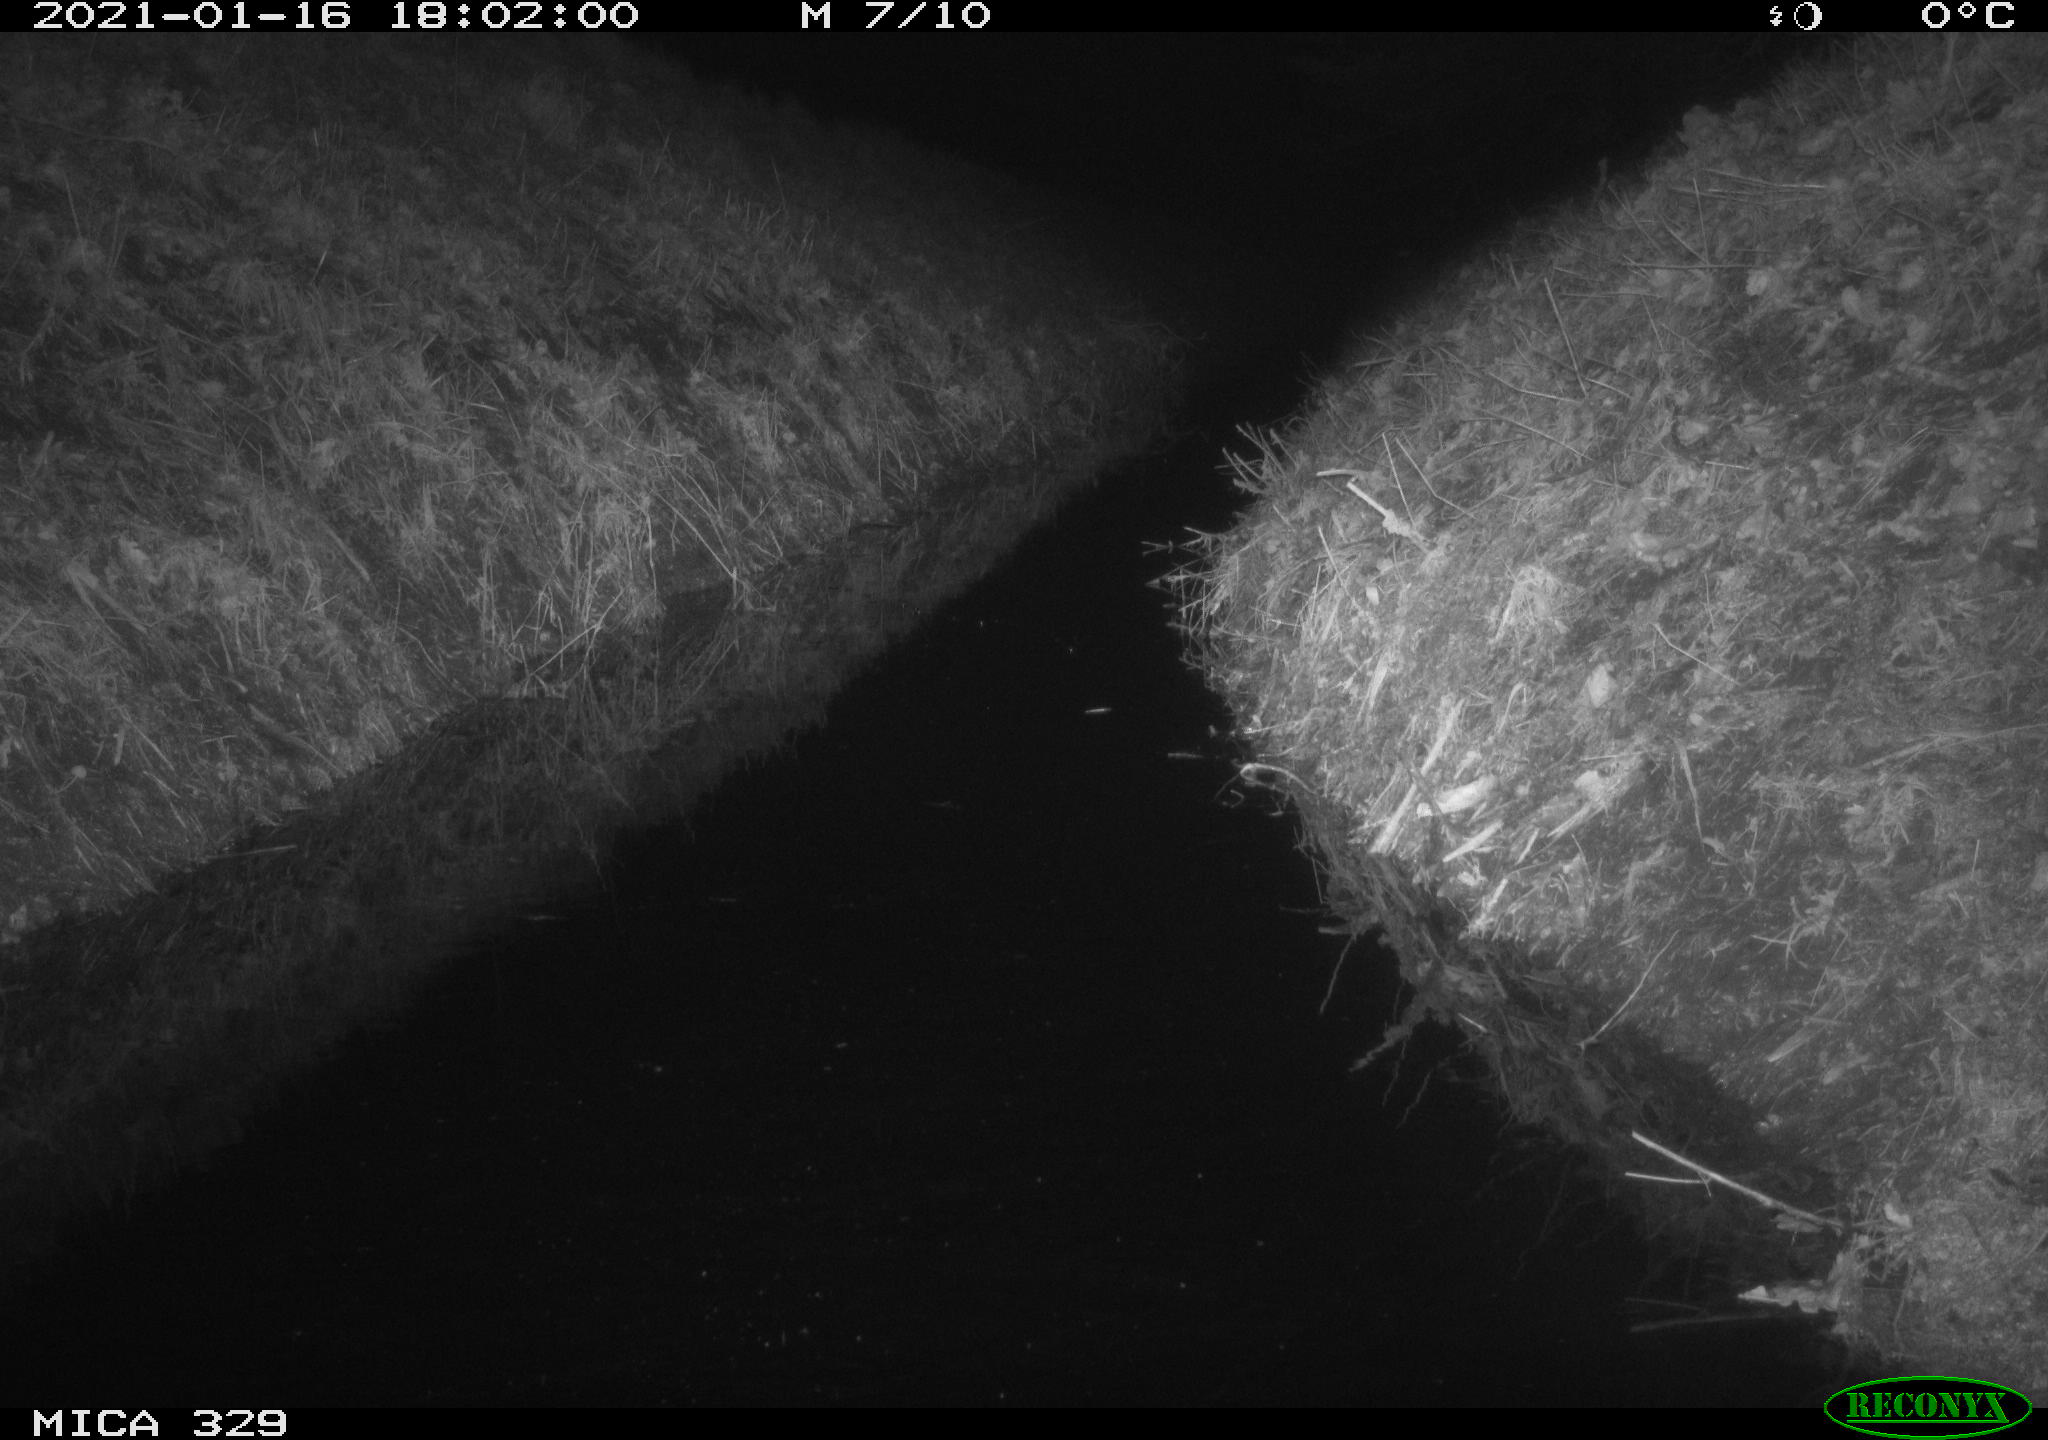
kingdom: Animalia
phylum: Chordata
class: Mammalia
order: Rodentia
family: Muridae
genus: Rattus
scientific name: Rattus norvegicus
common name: Brown rat
